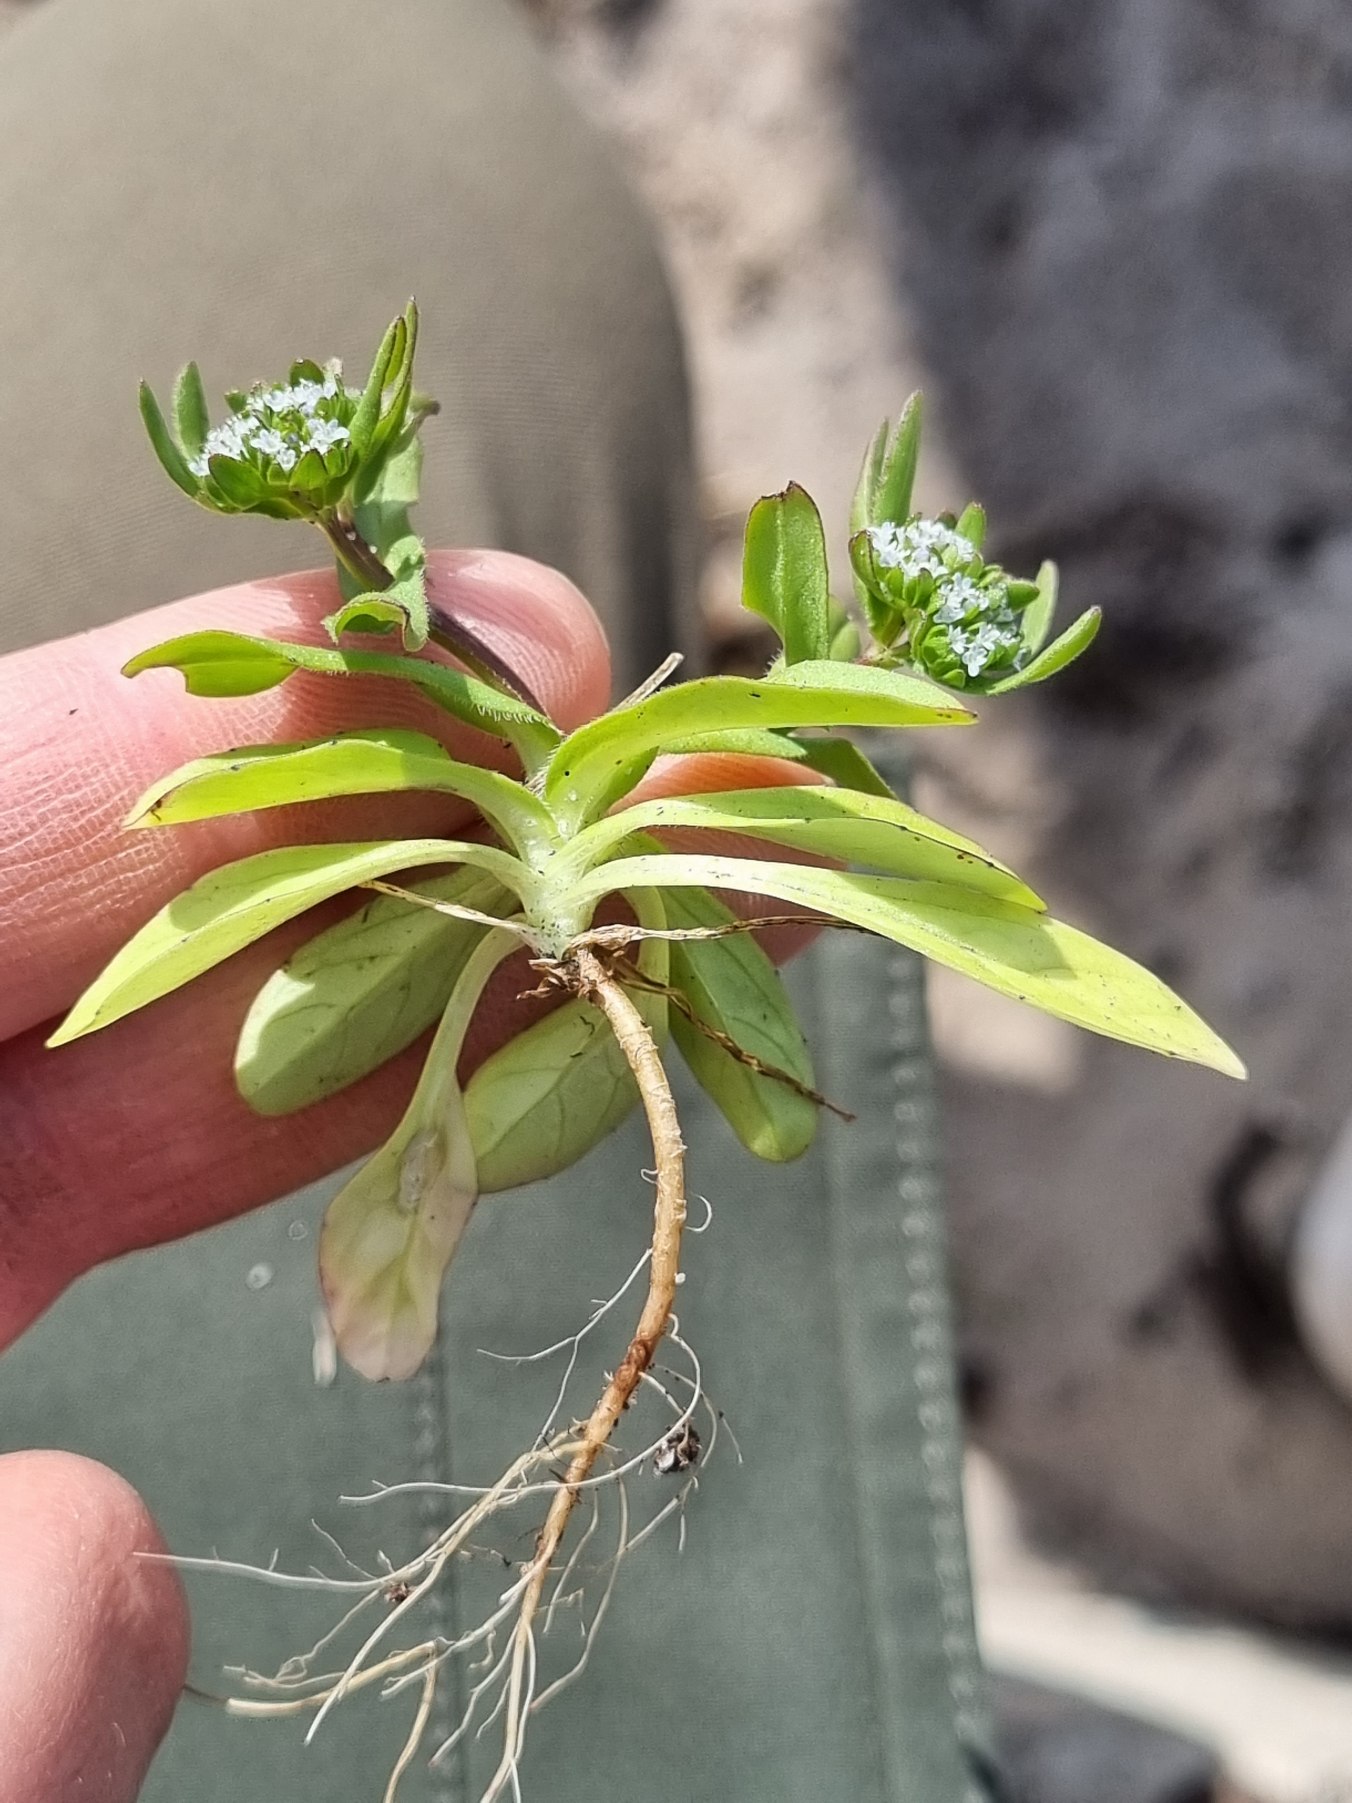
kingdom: Plantae
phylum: Tracheophyta
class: Magnoliopsida
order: Dipsacales
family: Caprifoliaceae
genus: Valerianella
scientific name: Valerianella locusta
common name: Tandfri vårsalat
